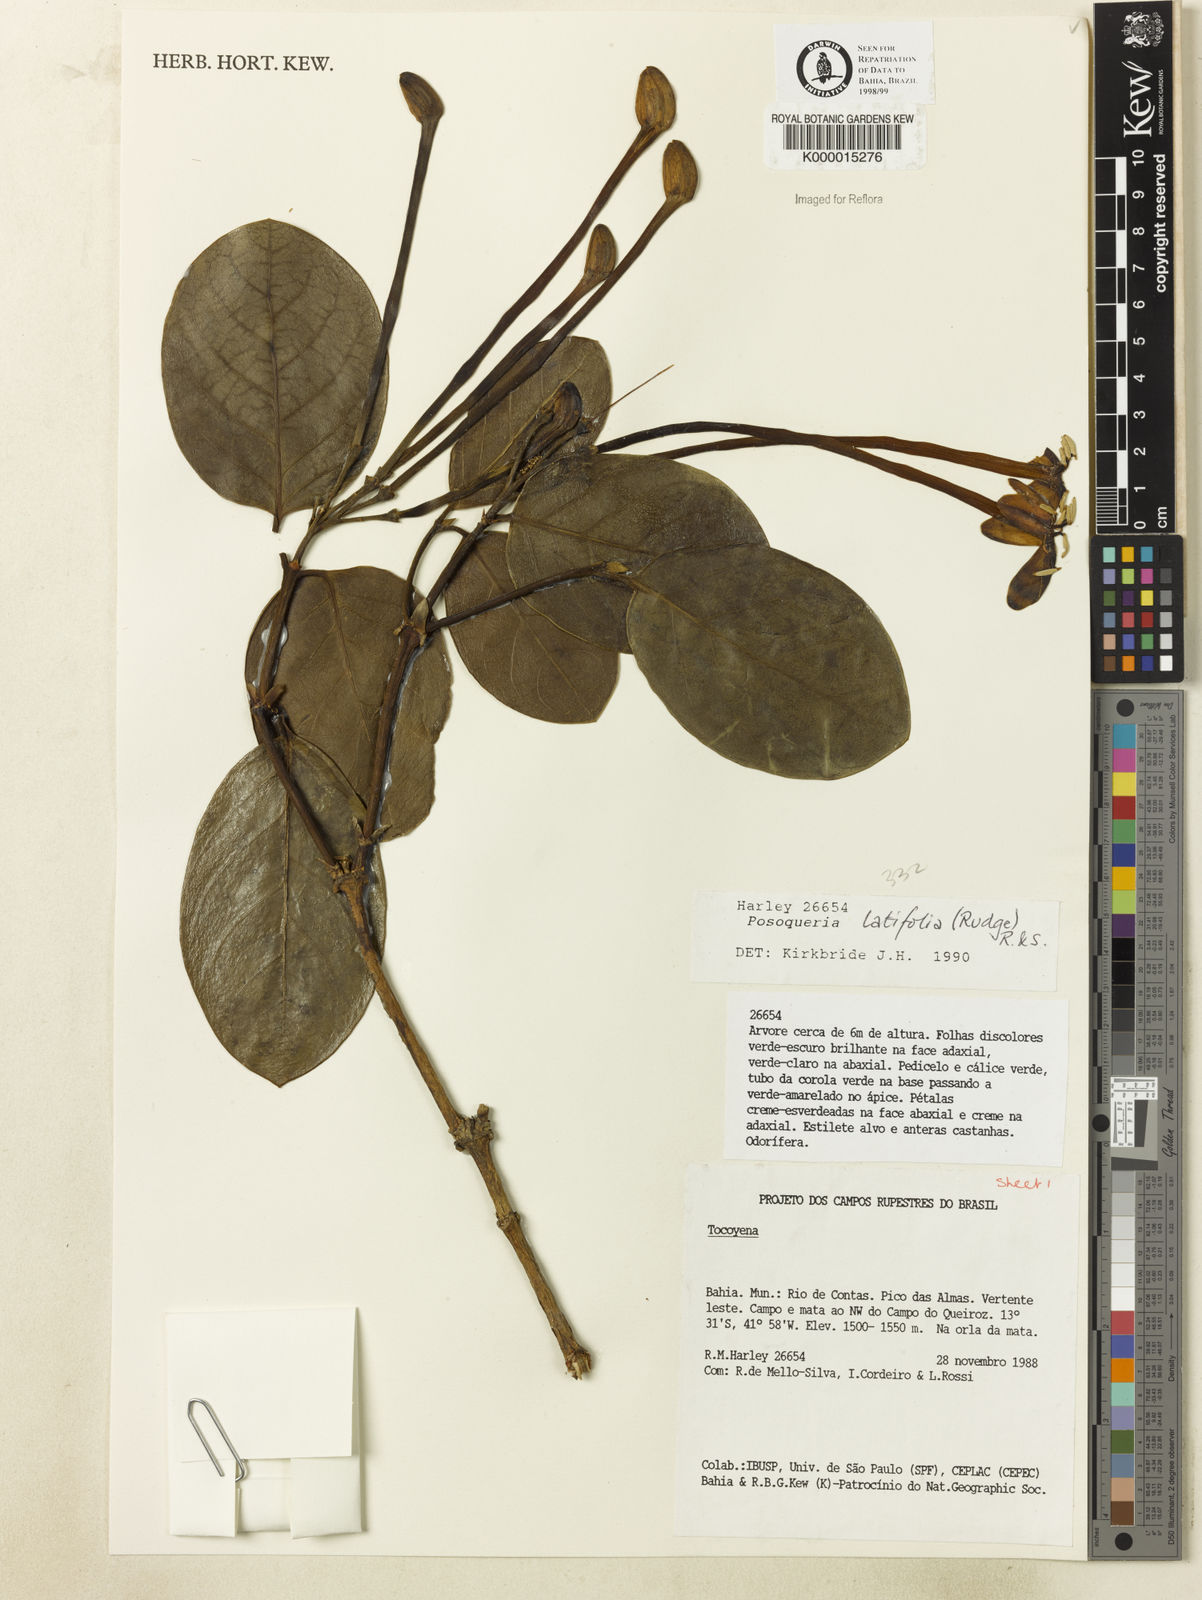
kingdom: Plantae
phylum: Tracheophyta
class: Magnoliopsida
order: Gentianales
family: Rubiaceae
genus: Posoqueria
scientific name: Posoqueria
